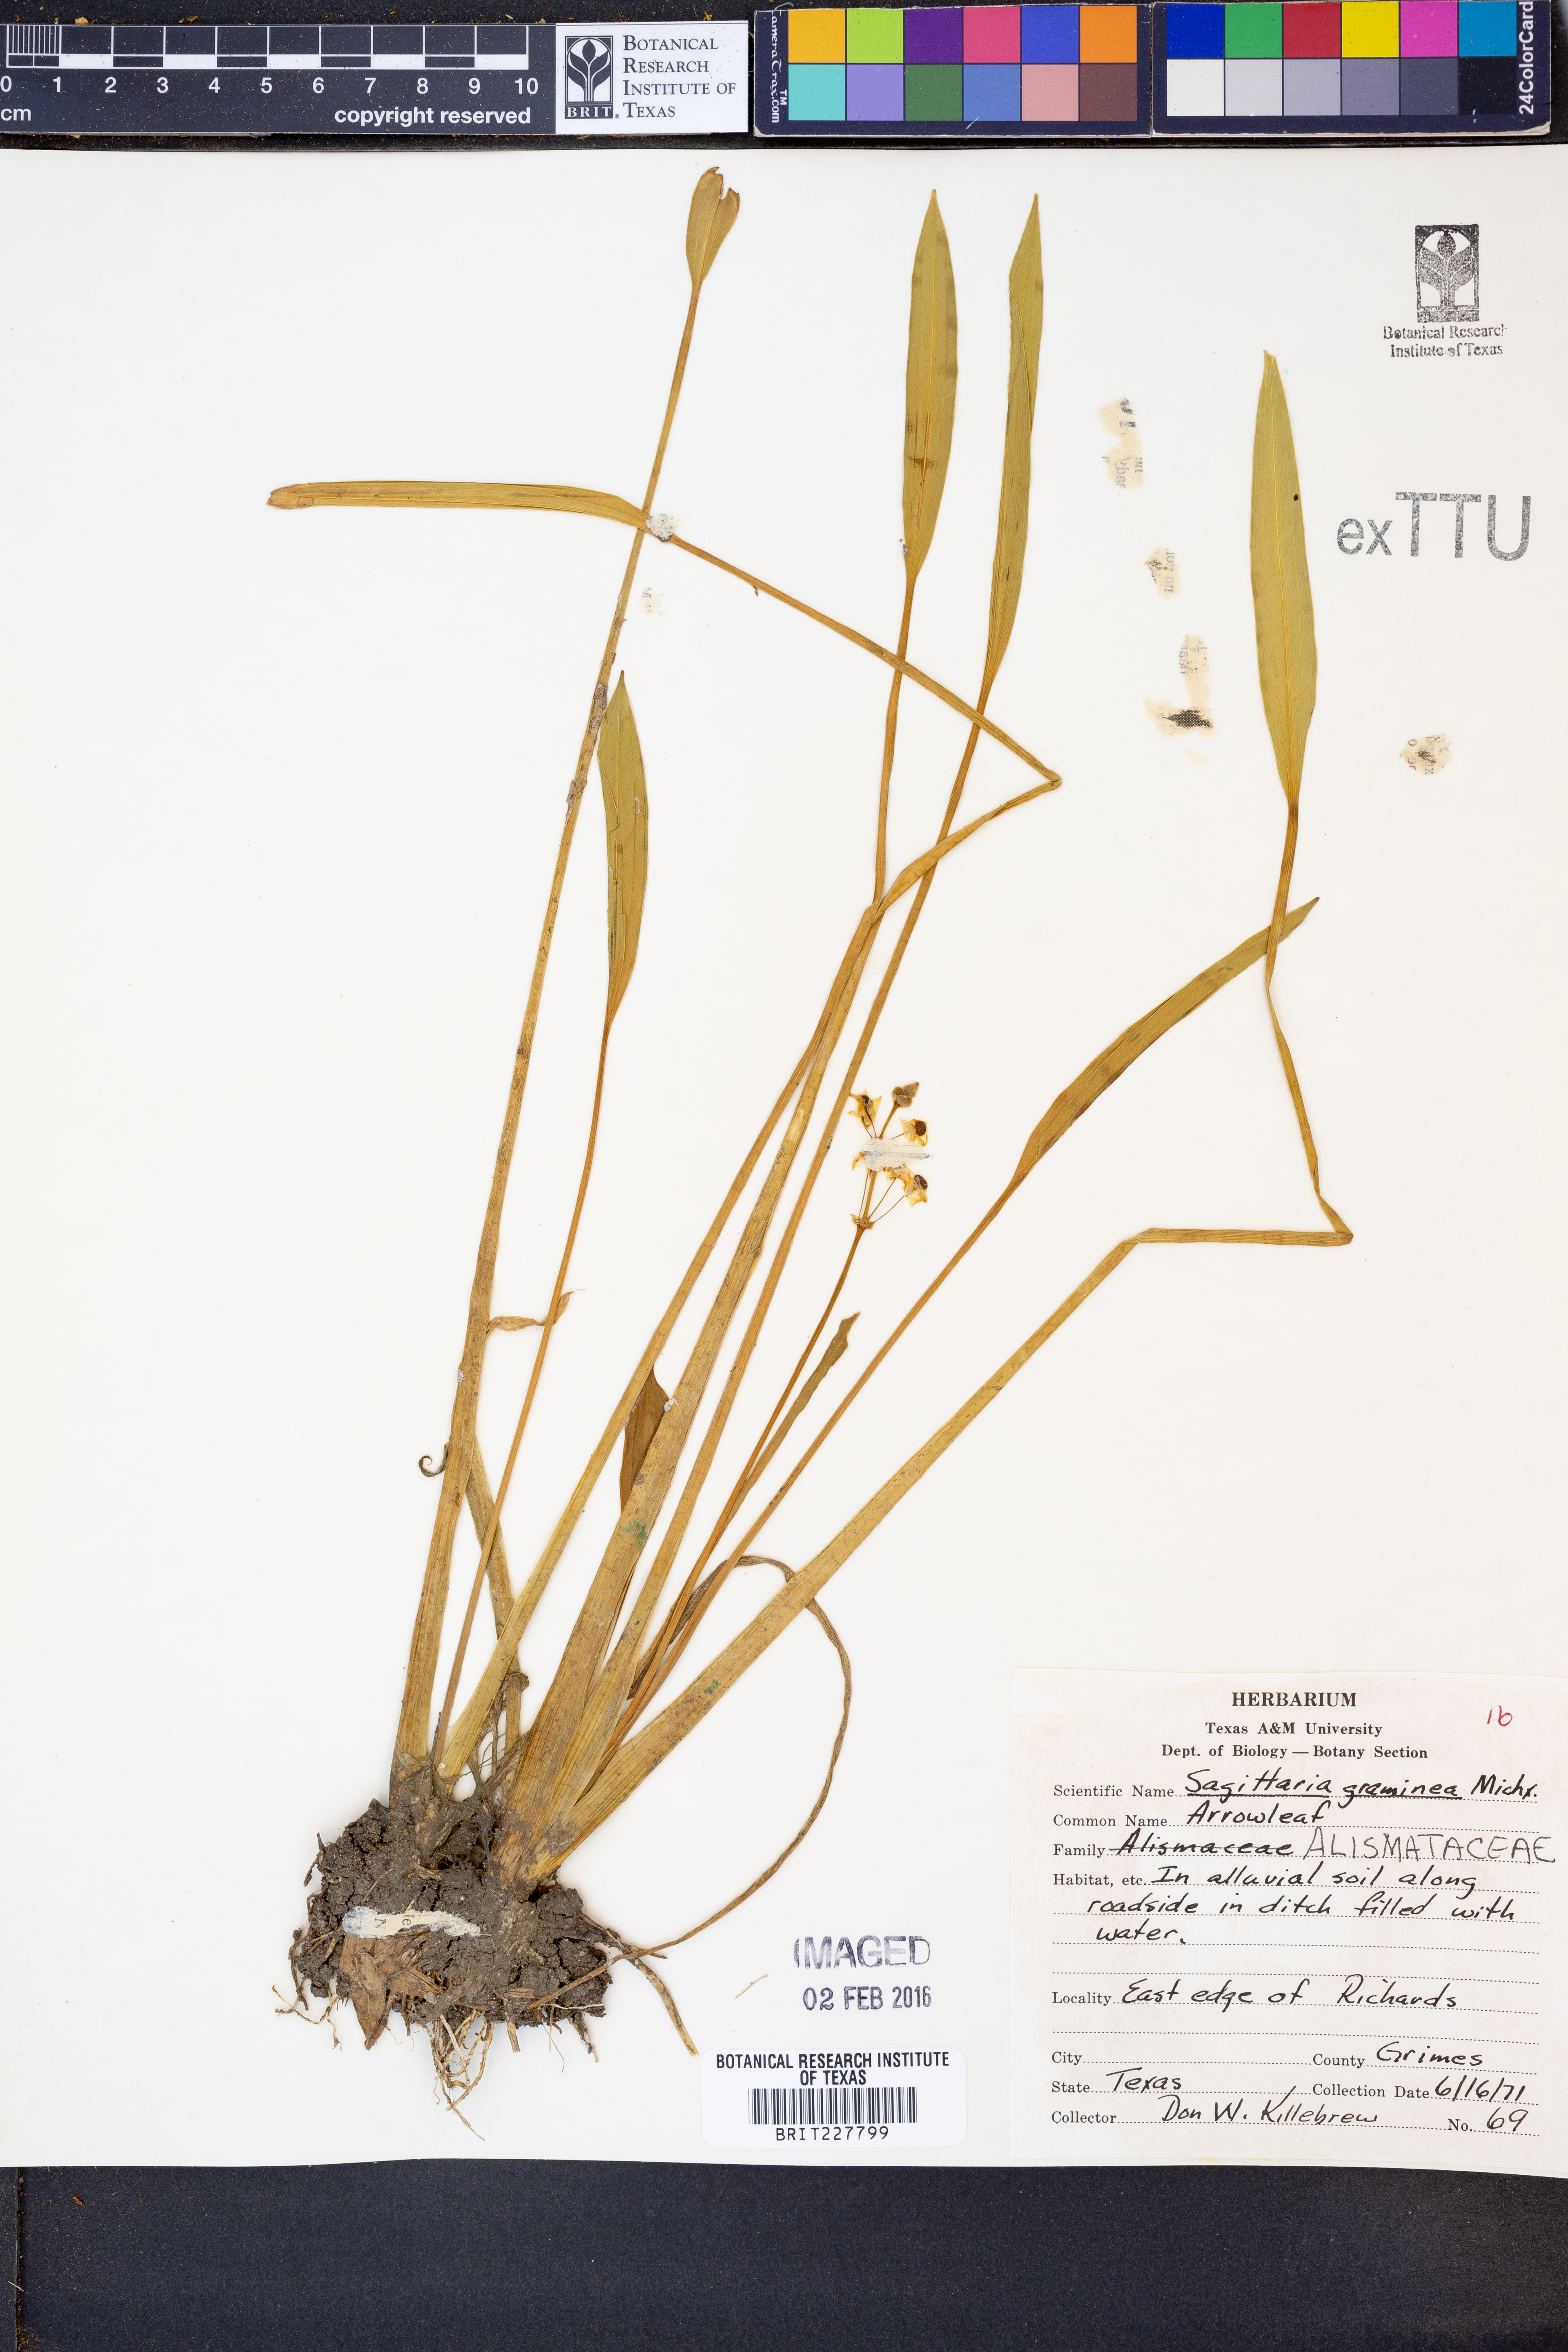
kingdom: Plantae
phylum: Tracheophyta
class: Liliopsida
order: Alismatales
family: Alismataceae
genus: Sagittaria
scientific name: Sagittaria graminea
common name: Grass-leaved arrowhead
